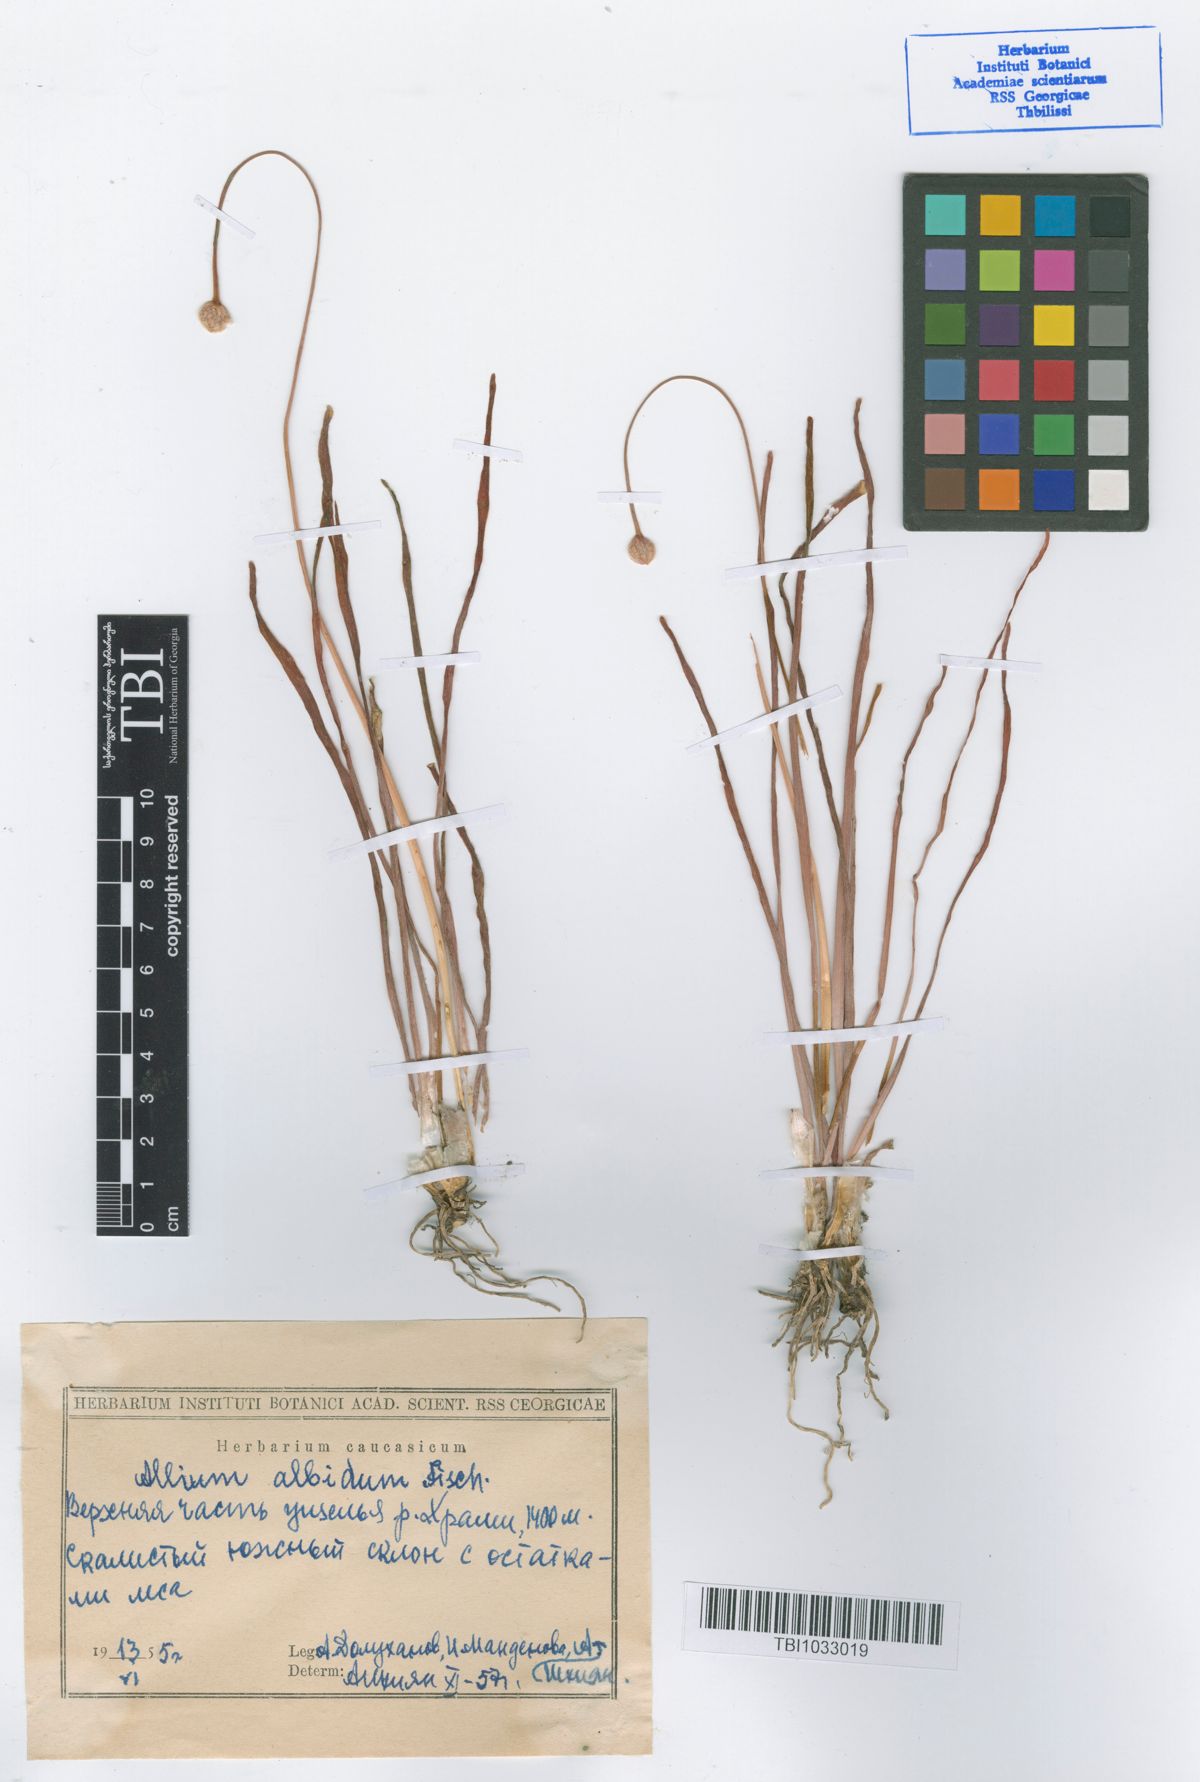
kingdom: Plantae
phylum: Tracheophyta
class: Liliopsida
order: Asparagales
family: Amaryllidaceae
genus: Allium
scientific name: Allium denudatum
